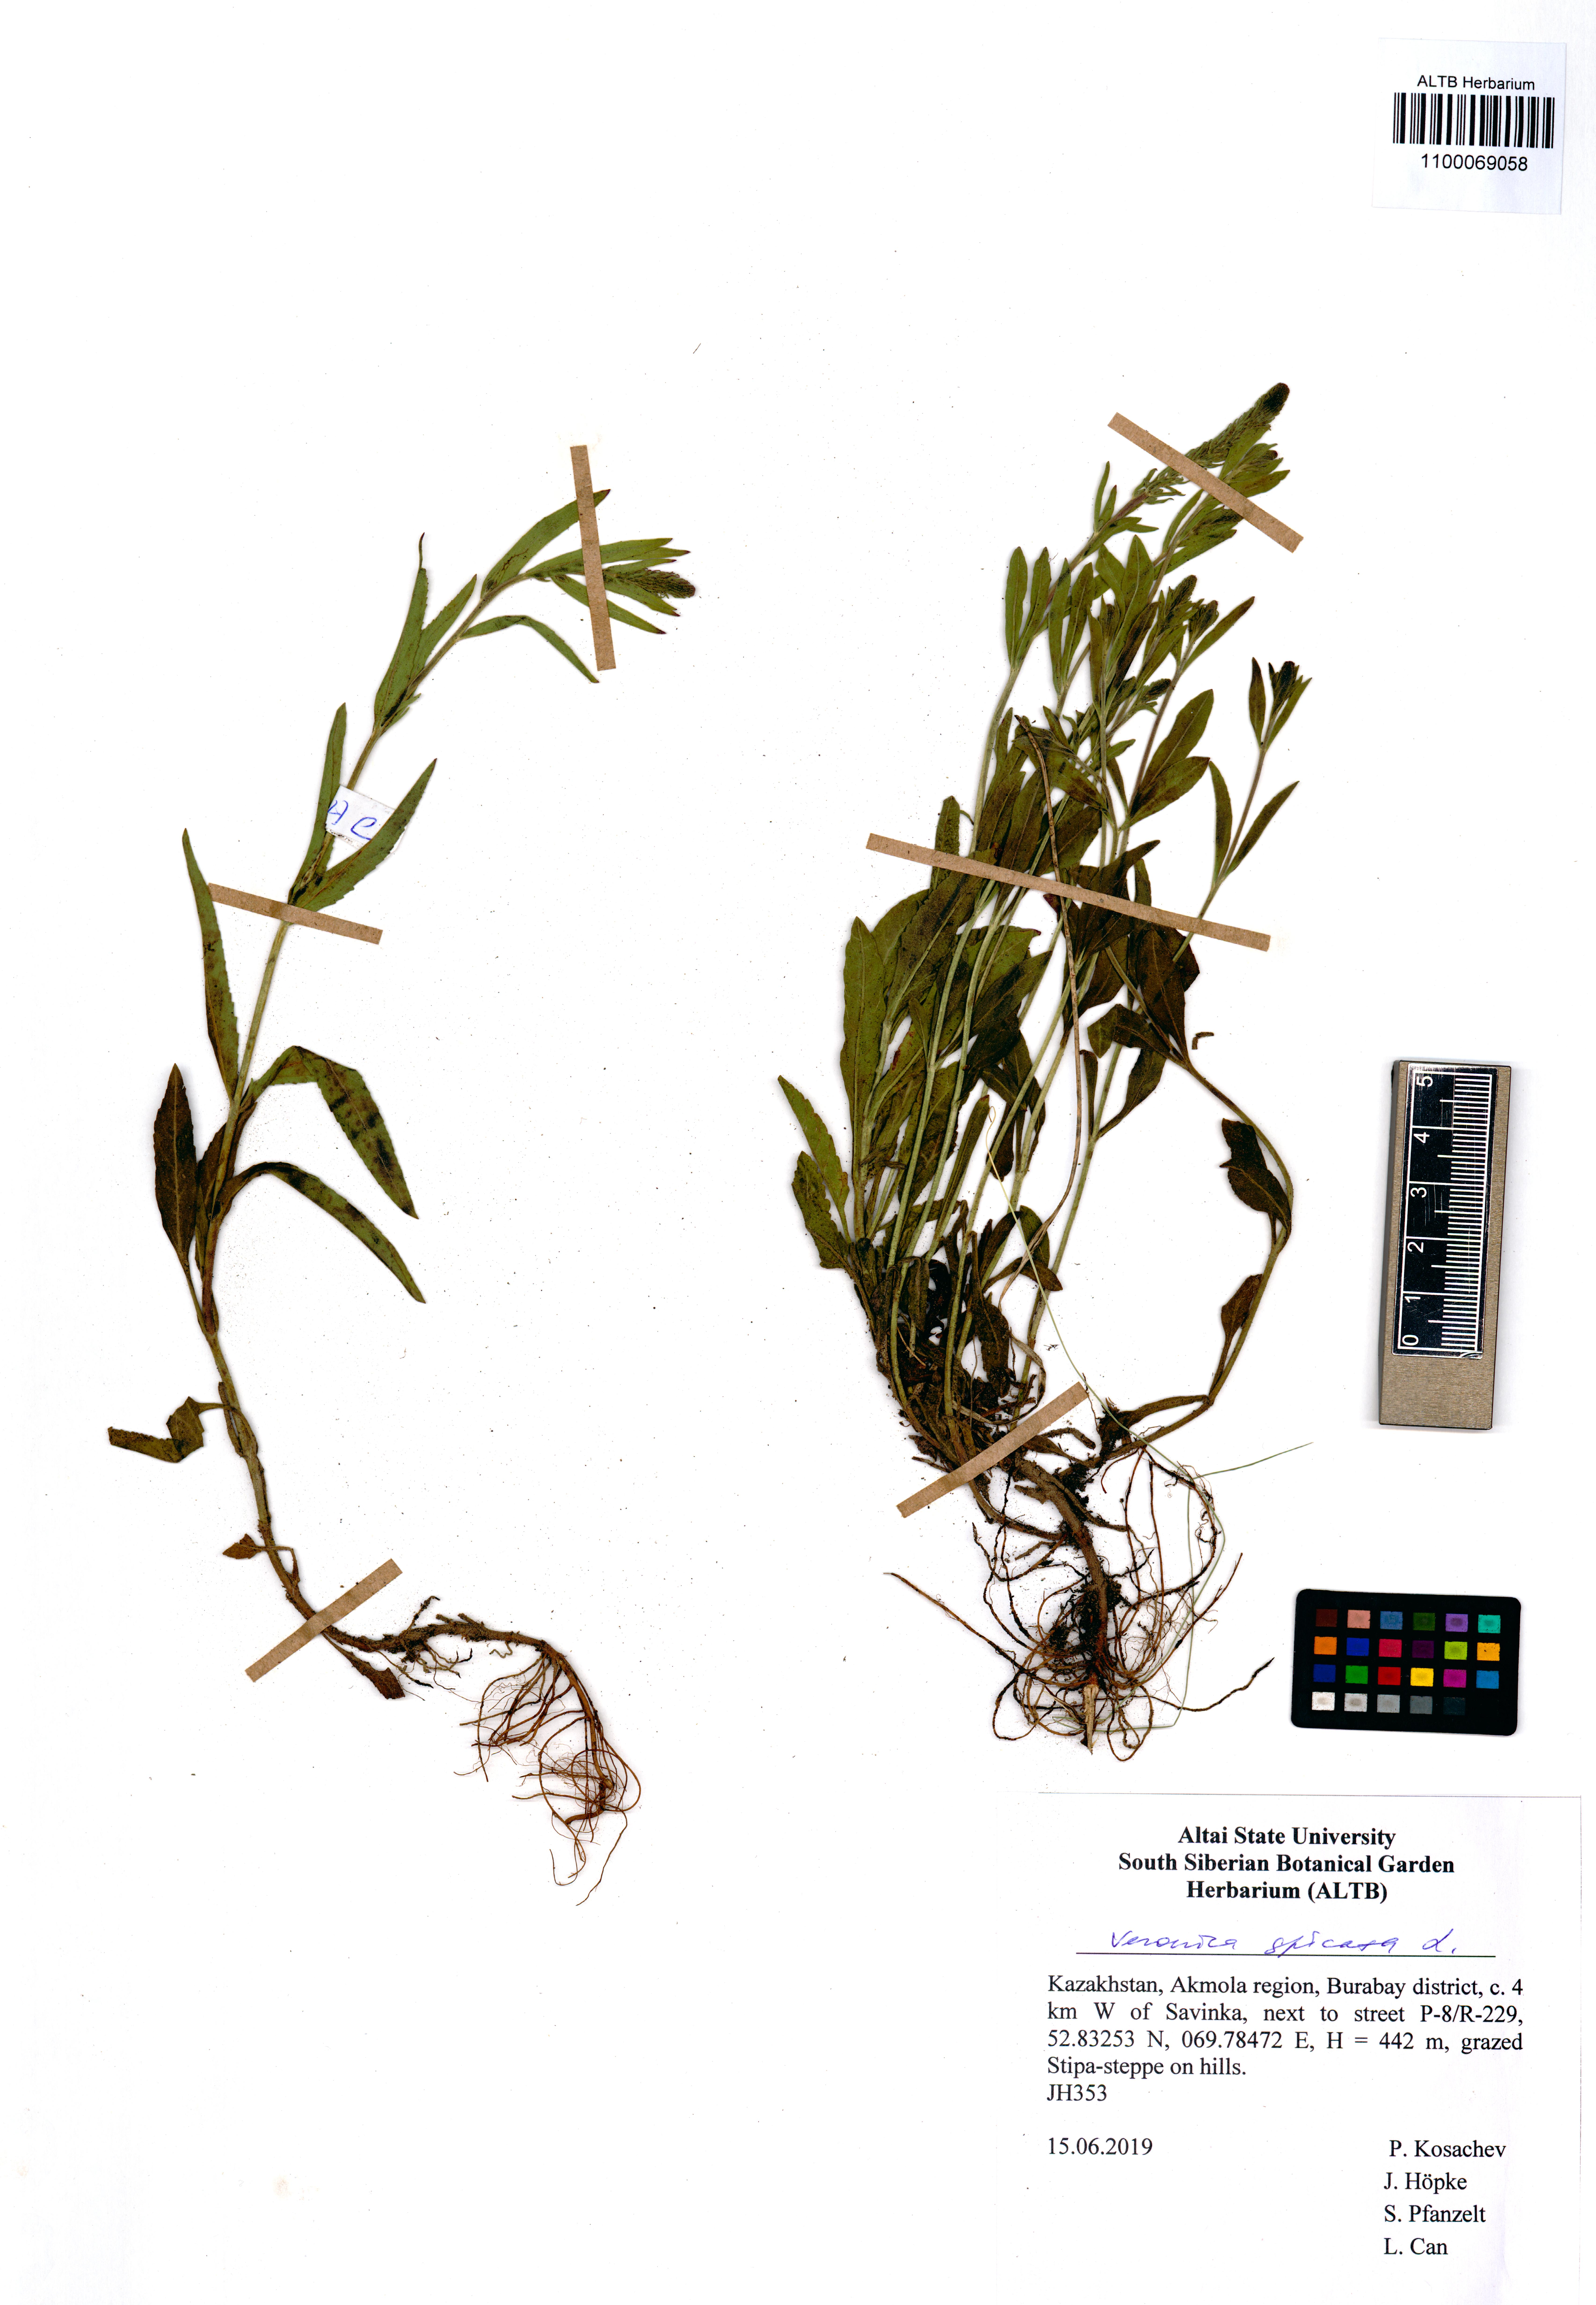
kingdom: Plantae
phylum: Tracheophyta
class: Magnoliopsida
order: Lamiales
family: Plantaginaceae
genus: Veronica
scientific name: Veronica spicata
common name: Spiked speedwell
